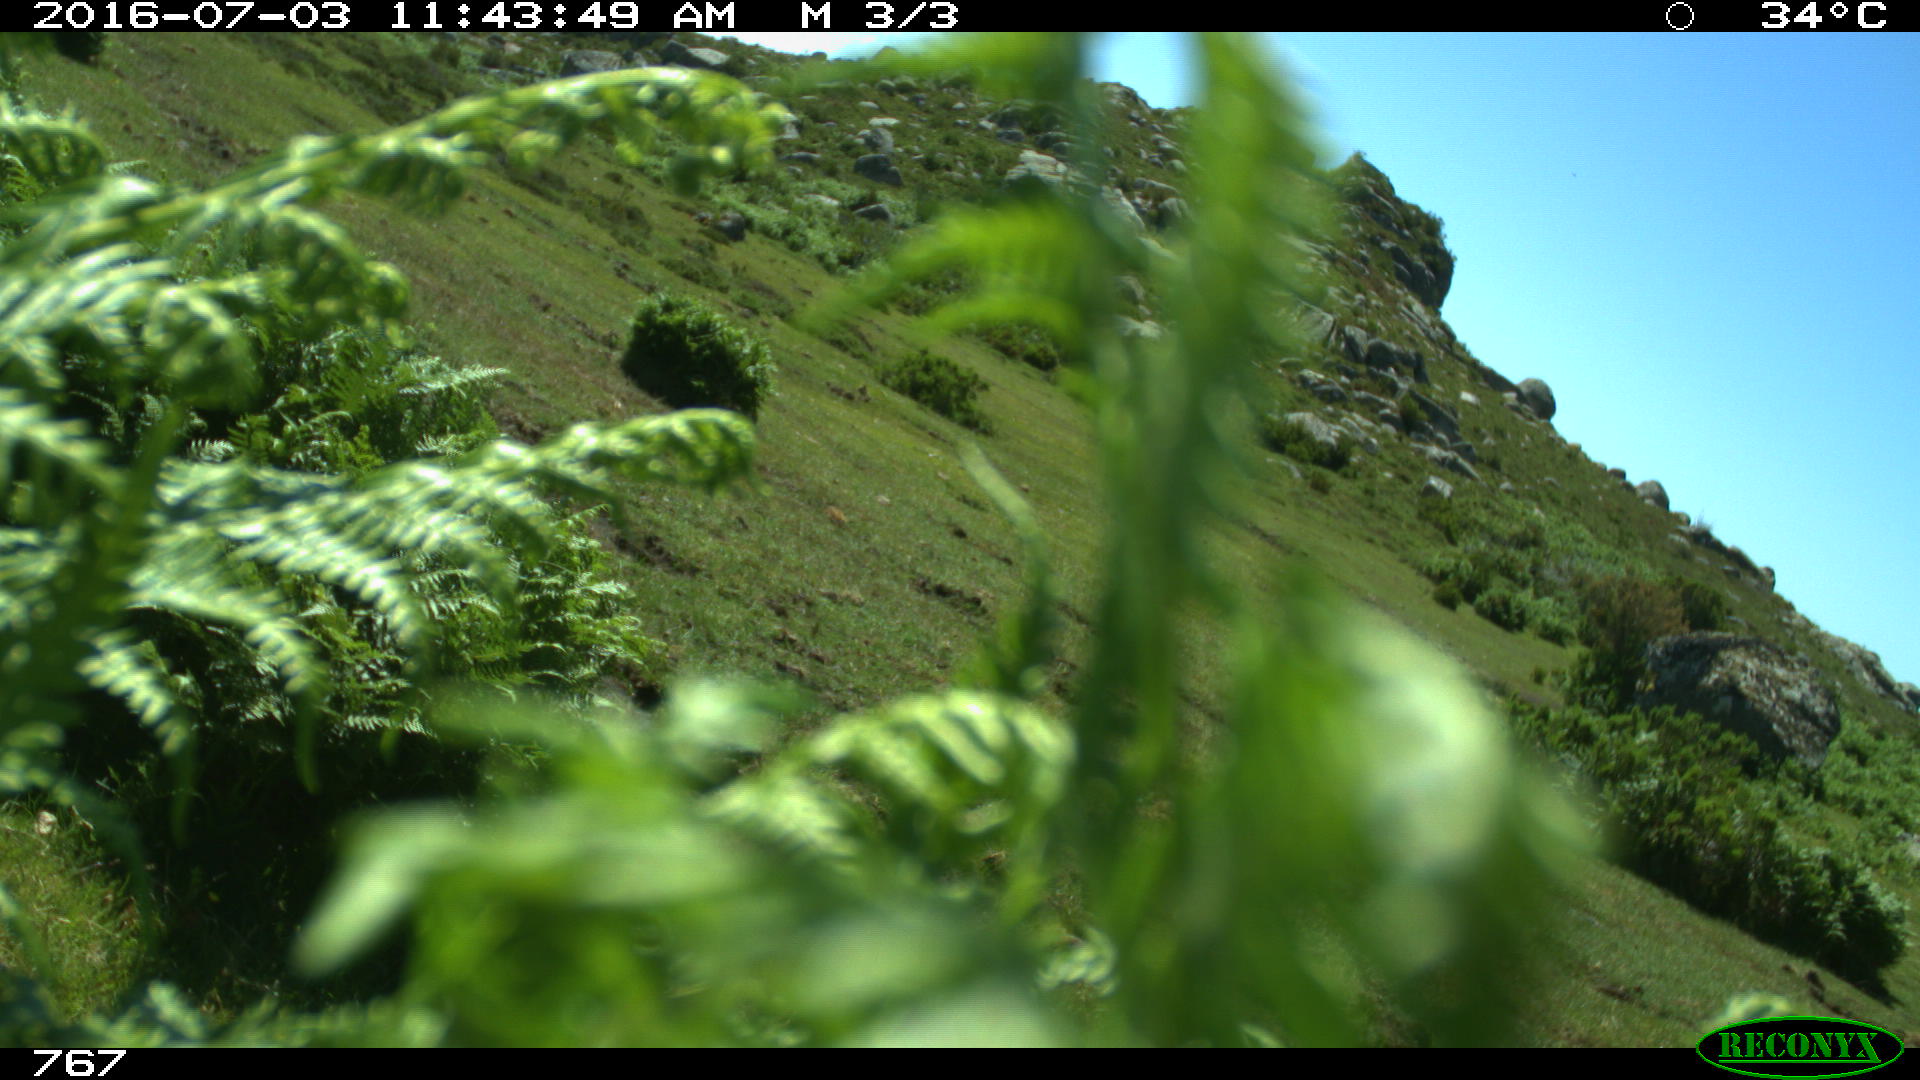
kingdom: Animalia
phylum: Chordata
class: Mammalia
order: Perissodactyla
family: Equidae
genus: Equus
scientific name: Equus caballus
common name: Horse
